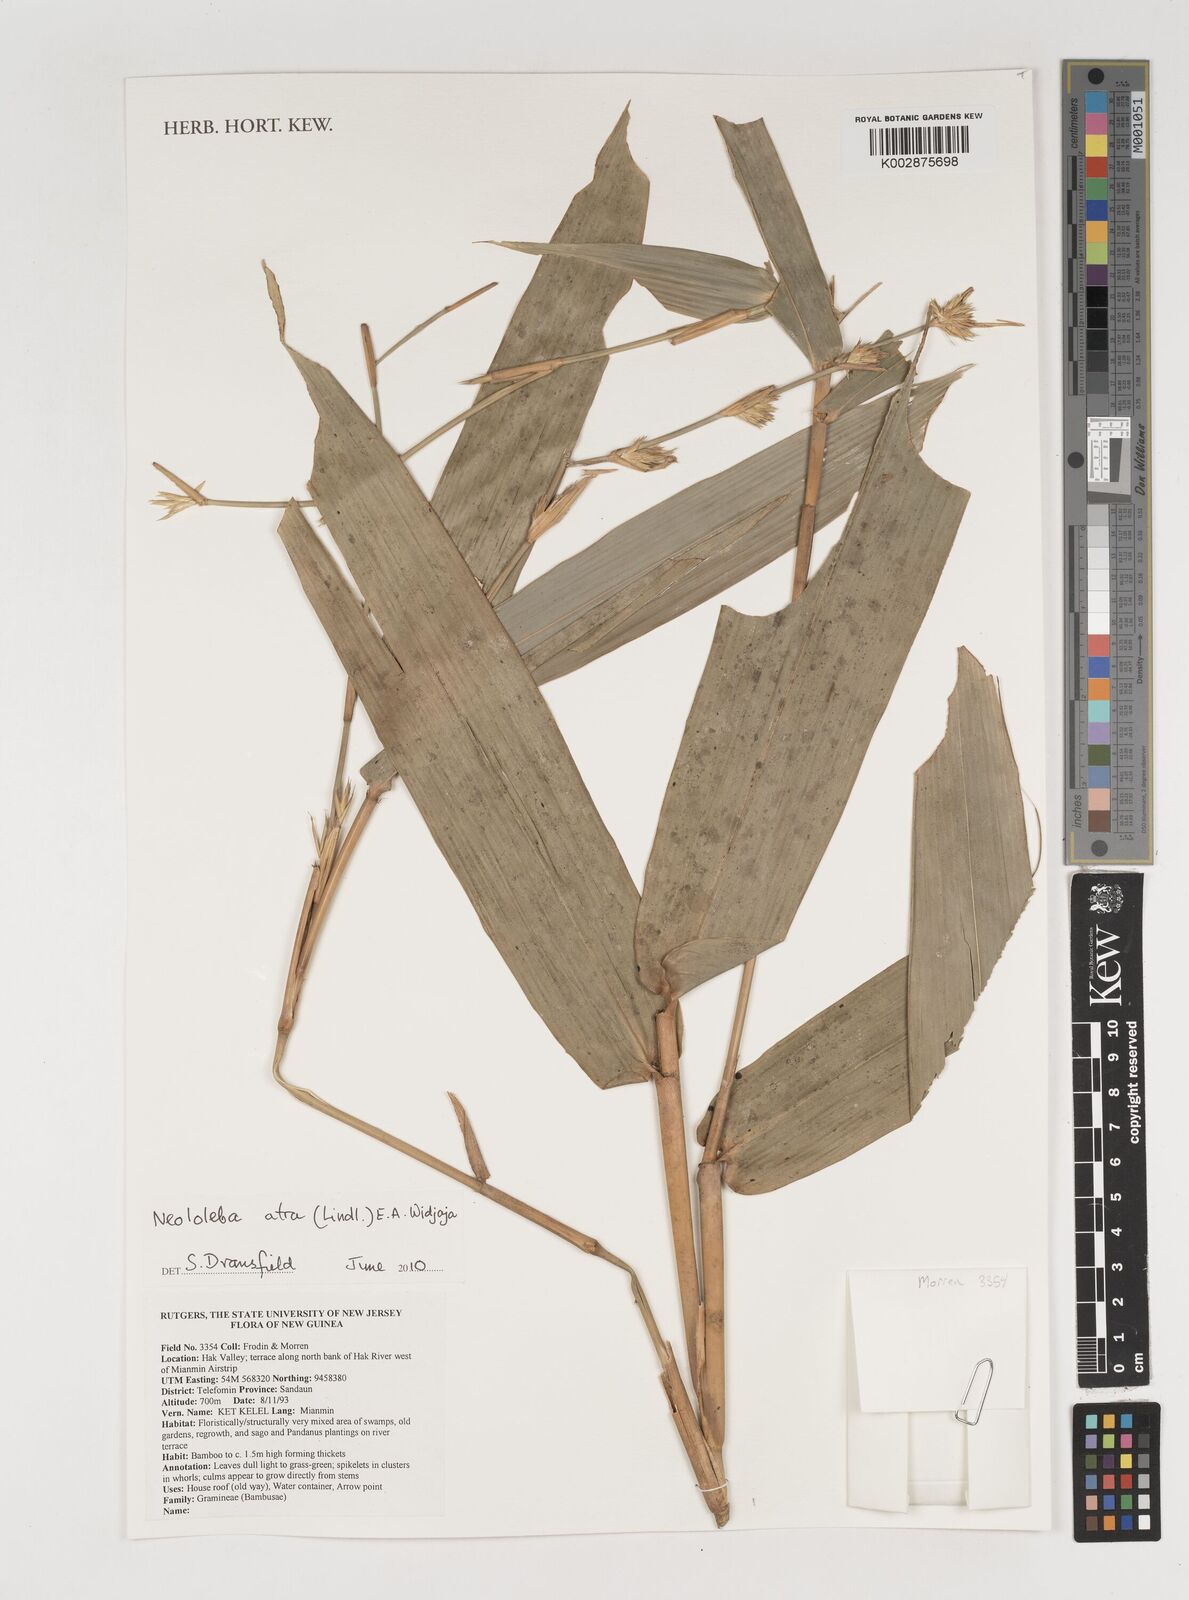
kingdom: Plantae
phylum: Tracheophyta
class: Liliopsida
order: Poales
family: Poaceae
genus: Neololeba
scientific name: Neololeba atra
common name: Cape bamboo
